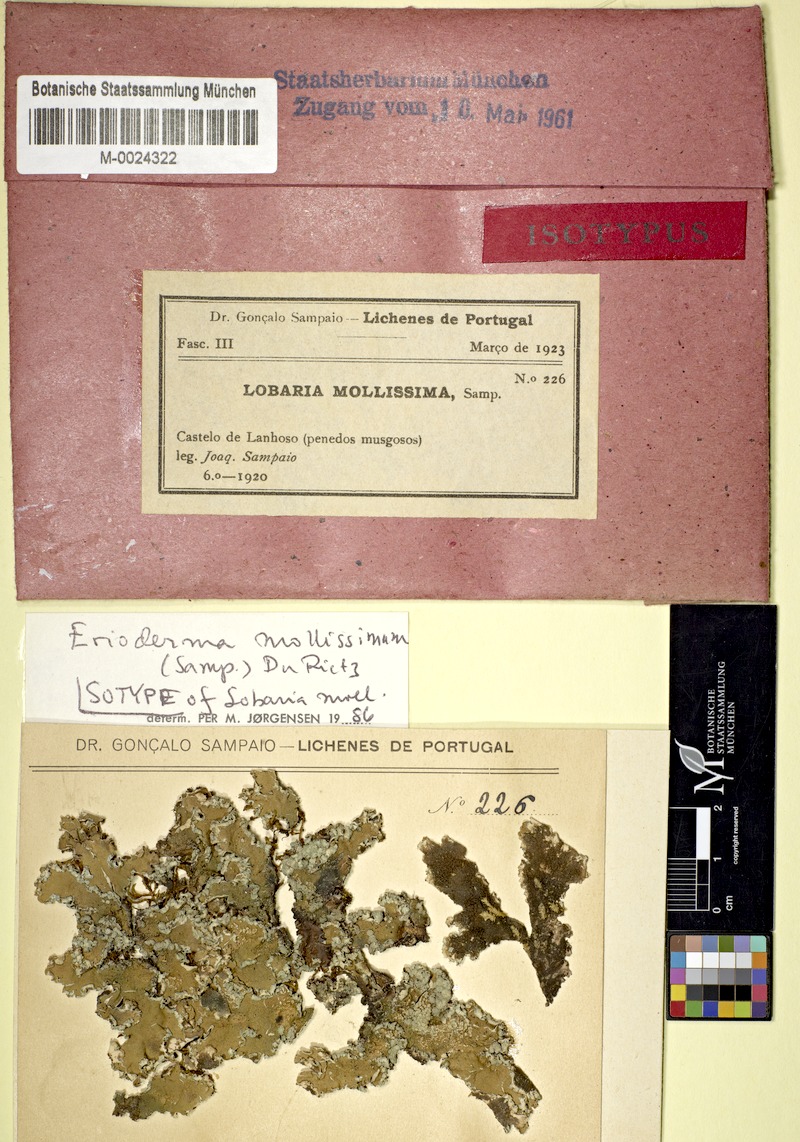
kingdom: Fungi
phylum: Ascomycota
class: Lecanoromycetes
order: Peltigerales
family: Pannariaceae
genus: Erioderma
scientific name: Erioderma mollissimum
